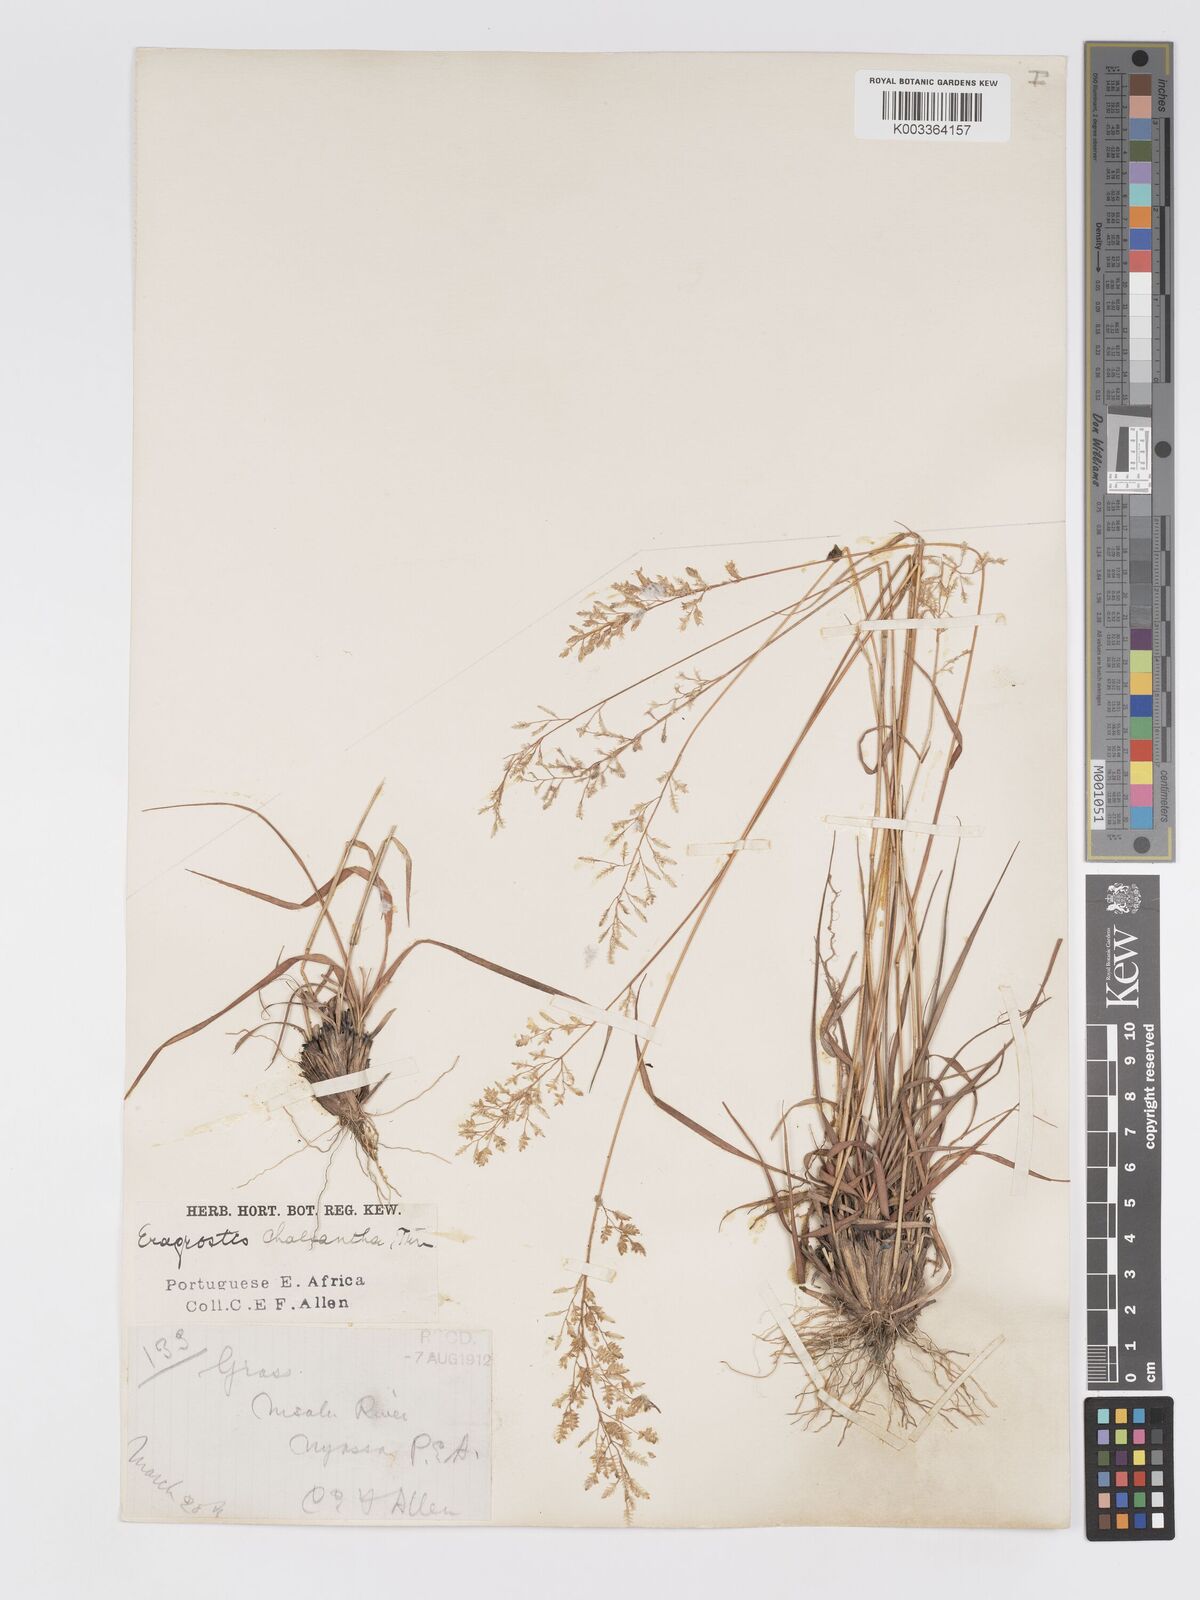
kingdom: Plantae
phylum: Tracheophyta
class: Liliopsida
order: Poales
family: Poaceae
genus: Eragrostis
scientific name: Eragrostis racemosa
